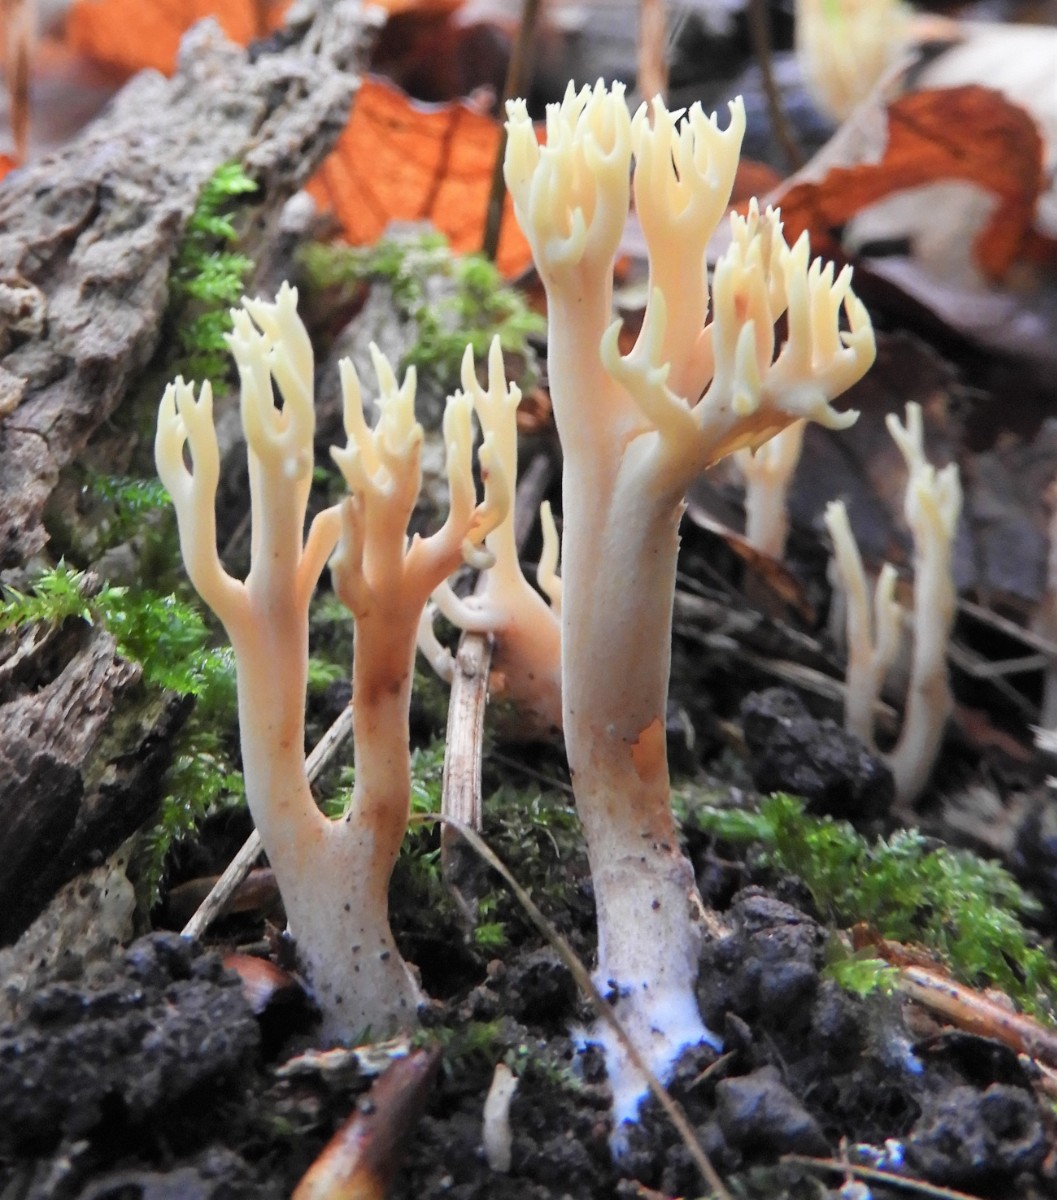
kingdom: Fungi
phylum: Basidiomycota
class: Agaricomycetes
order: Gomphales
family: Gomphaceae
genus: Ramaria
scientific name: Ramaria stricta
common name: rank koralsvamp
